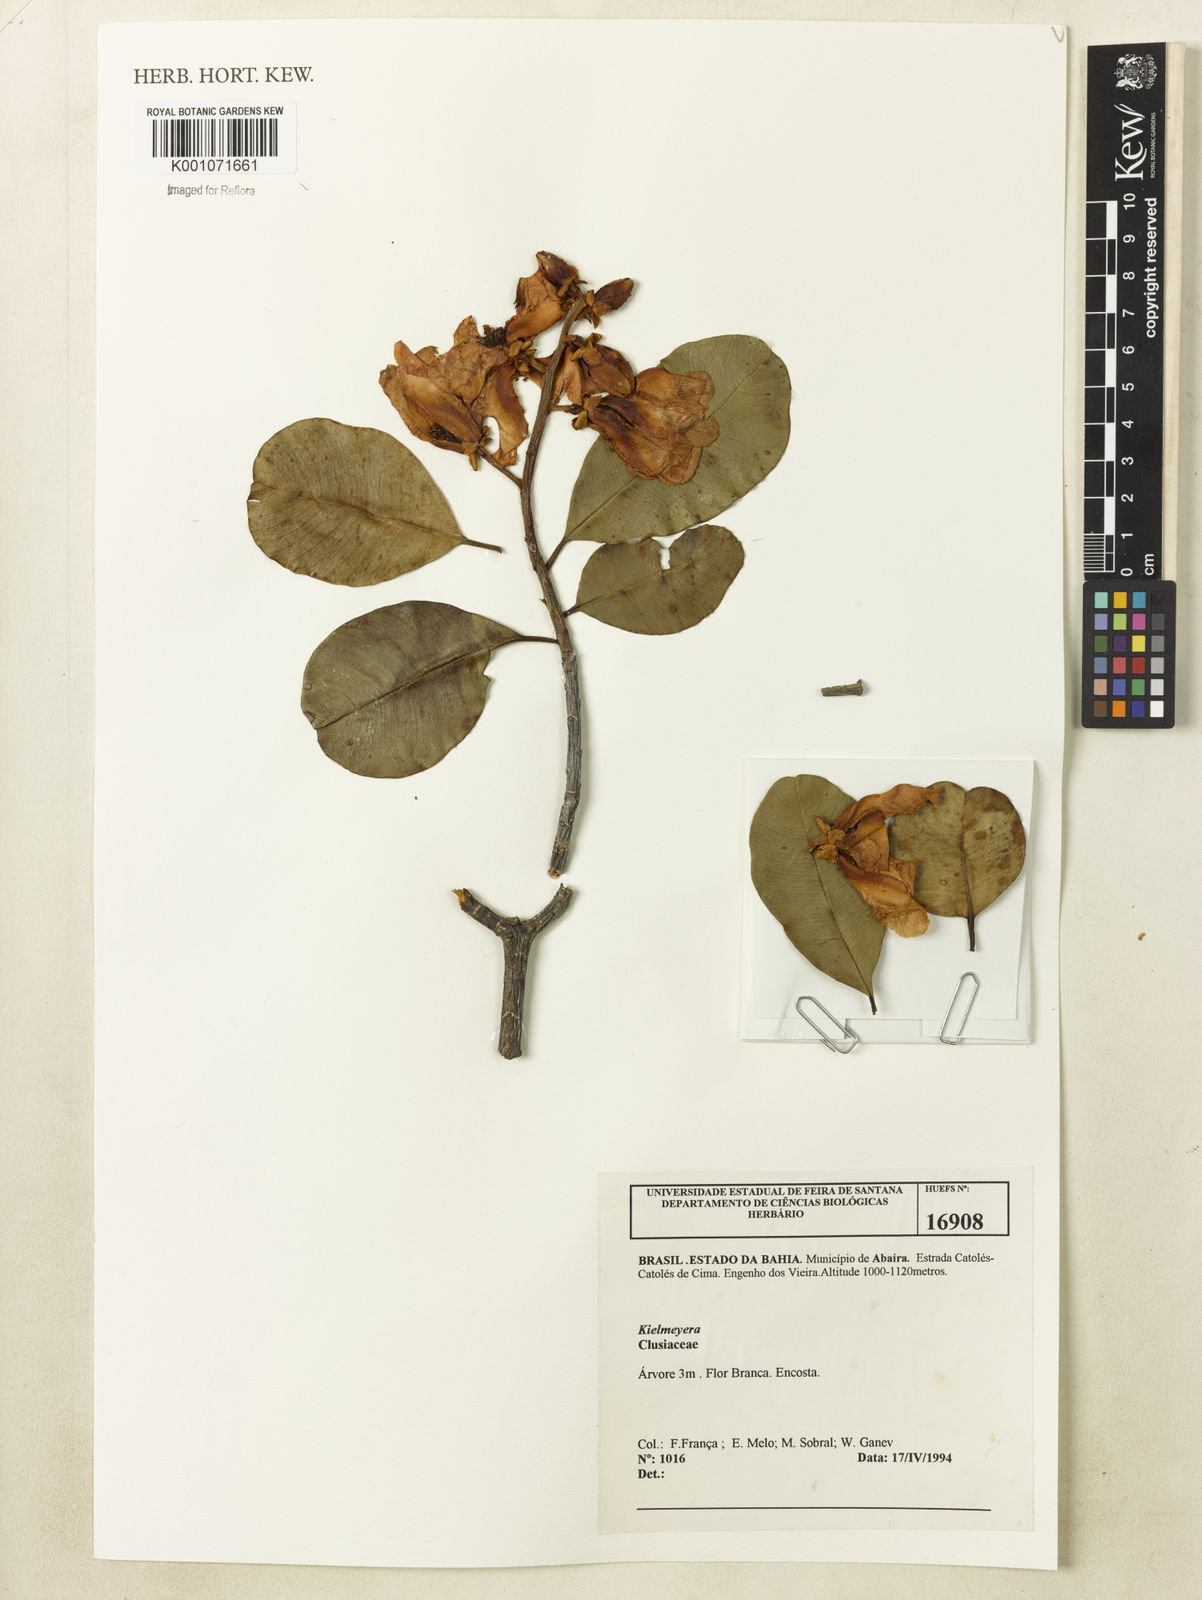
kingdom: Plantae
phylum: Tracheophyta
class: Magnoliopsida
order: Malpighiales
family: Calophyllaceae
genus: Kielmeyera
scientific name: Kielmeyera
